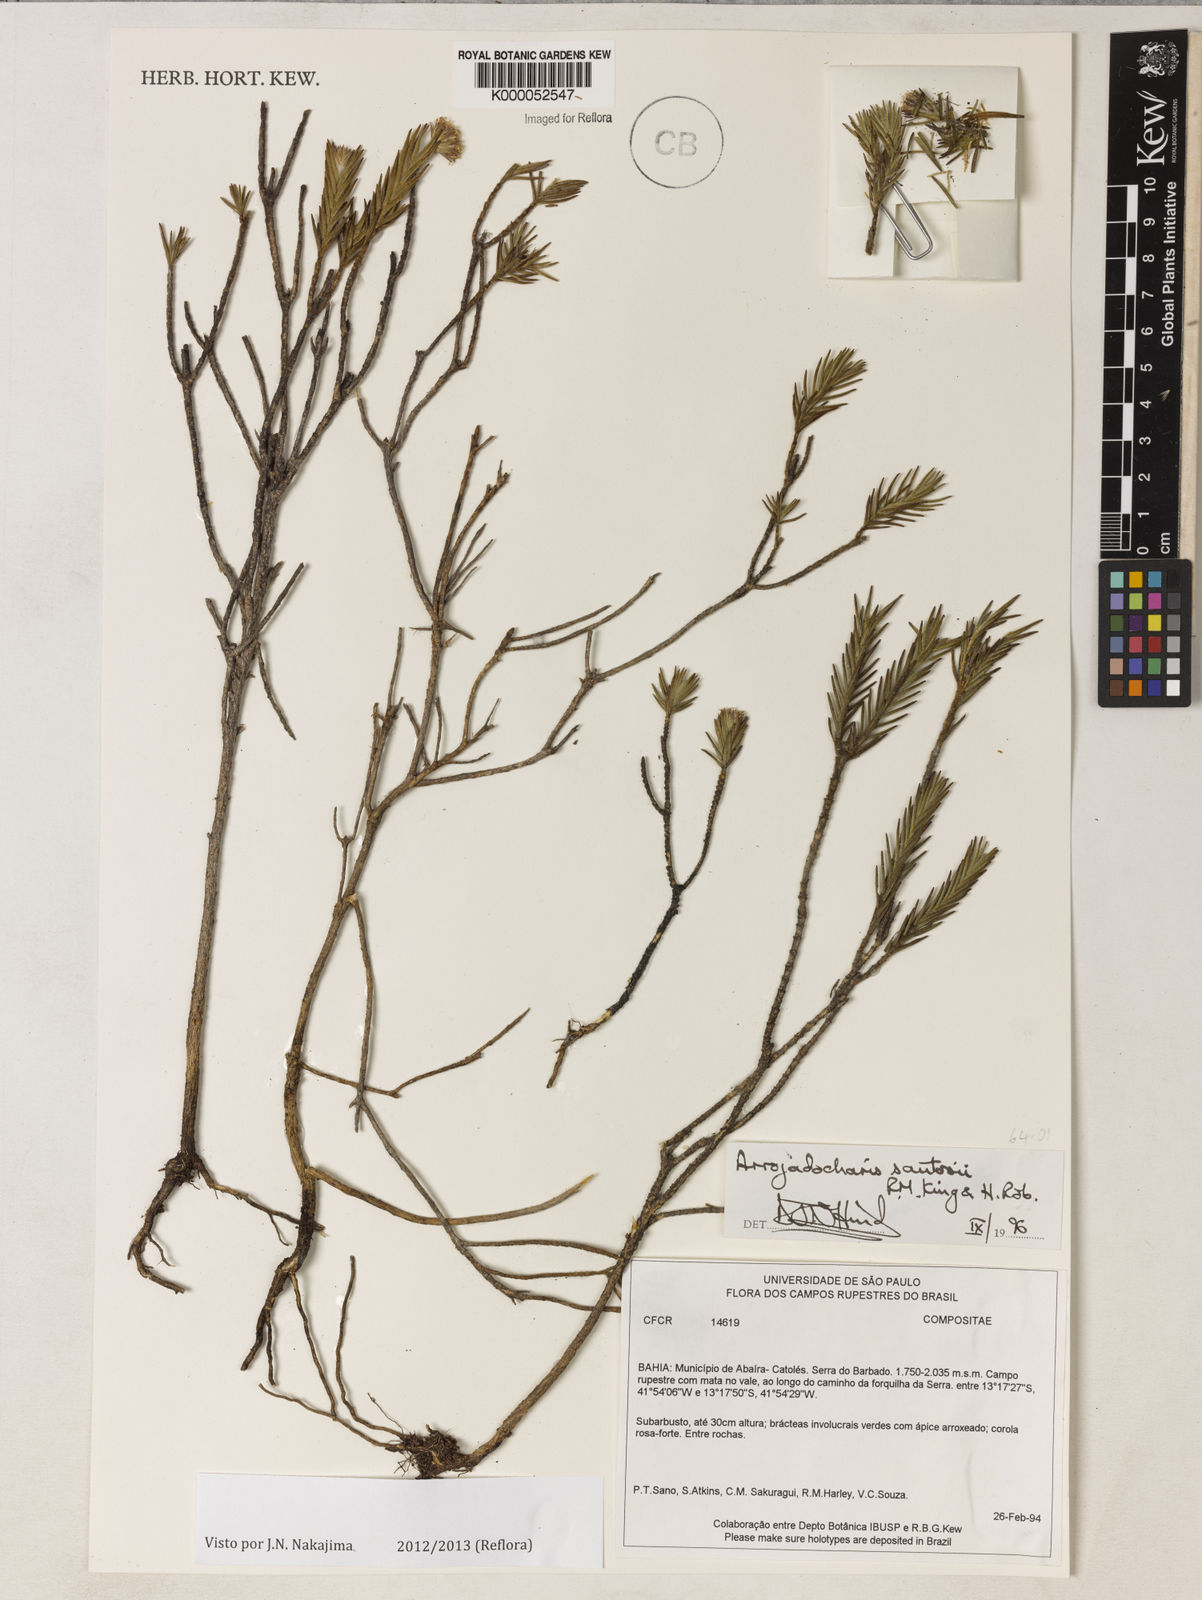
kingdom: Plantae
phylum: Tracheophyta
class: Magnoliopsida
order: Asterales
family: Asteraceae
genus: Arrojadocharis
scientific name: Arrojadocharis santosii
